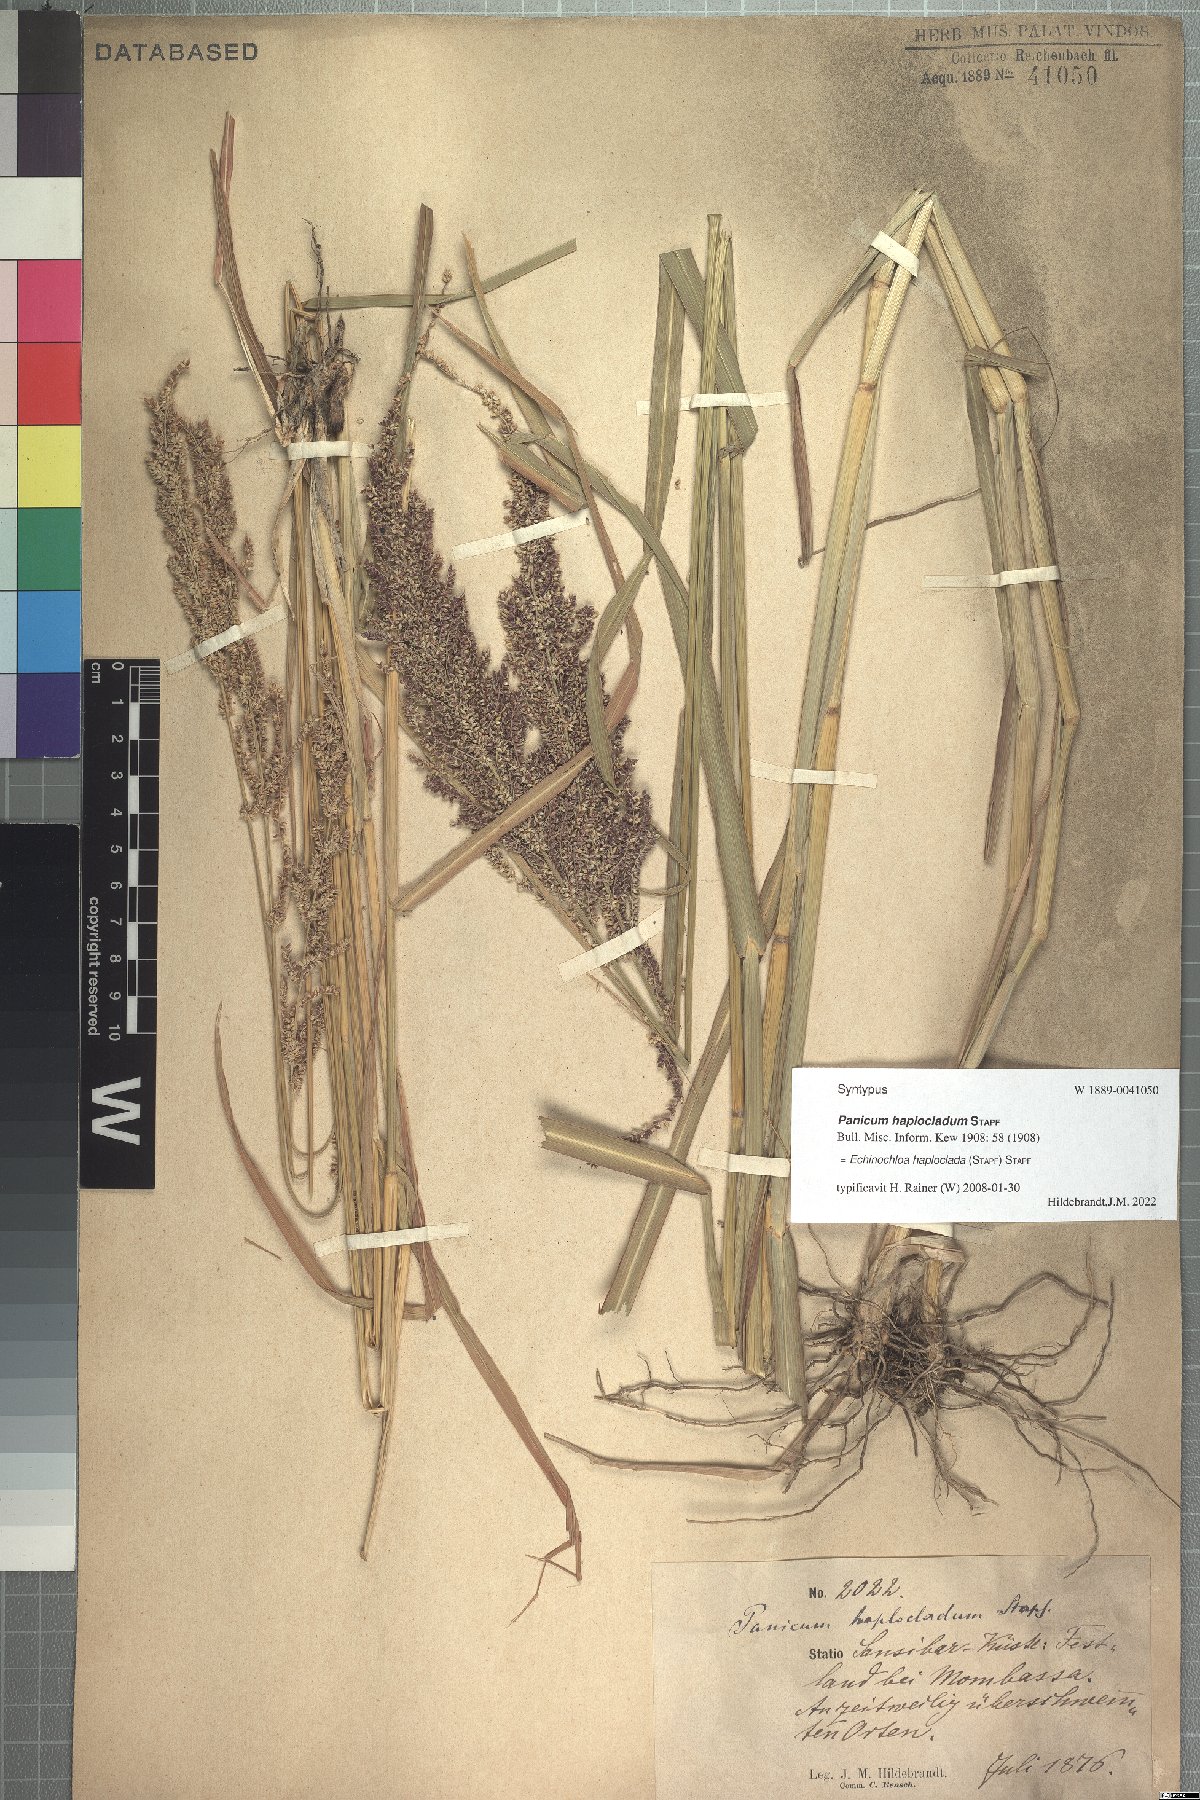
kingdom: Plantae
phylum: Tracheophyta
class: Liliopsida
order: Poales
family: Poaceae
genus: Echinochloa
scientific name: Echinochloa haploclada
